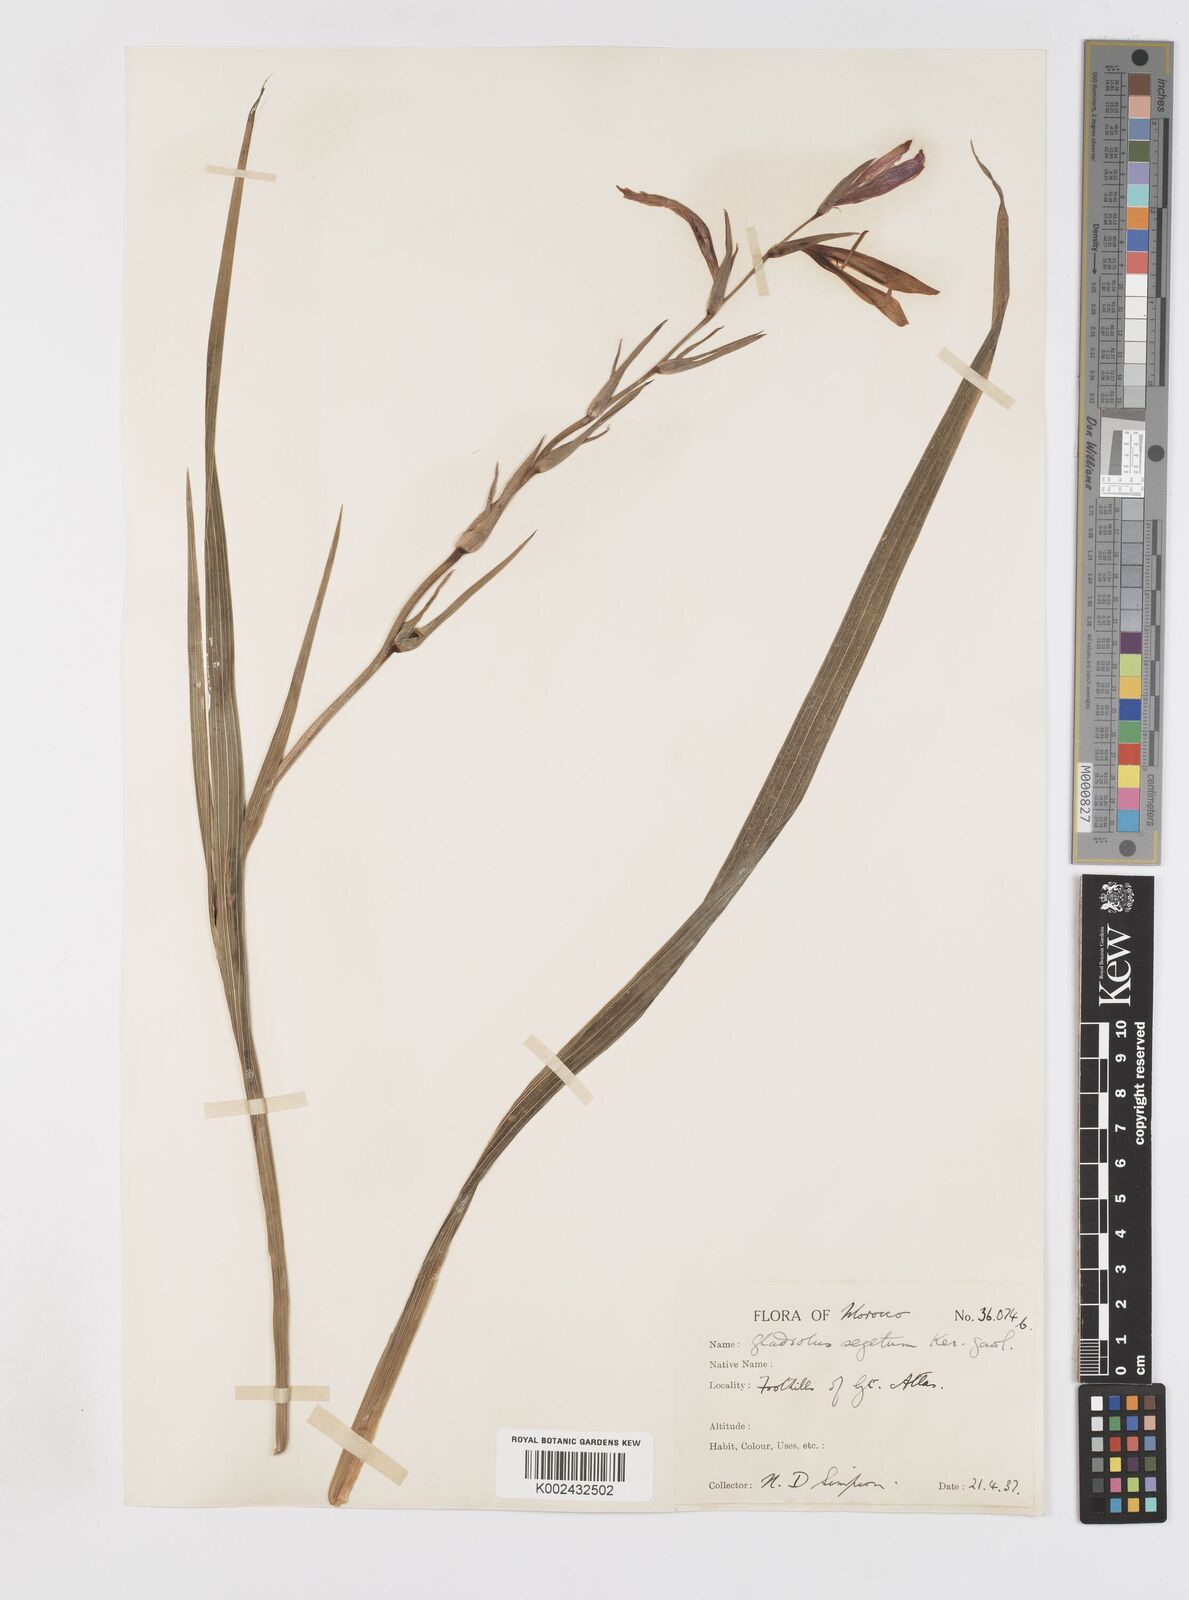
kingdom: Plantae
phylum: Tracheophyta
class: Liliopsida
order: Asparagales
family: Iridaceae
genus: Gladiolus
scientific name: Gladiolus italicus
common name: Field gladiolus
